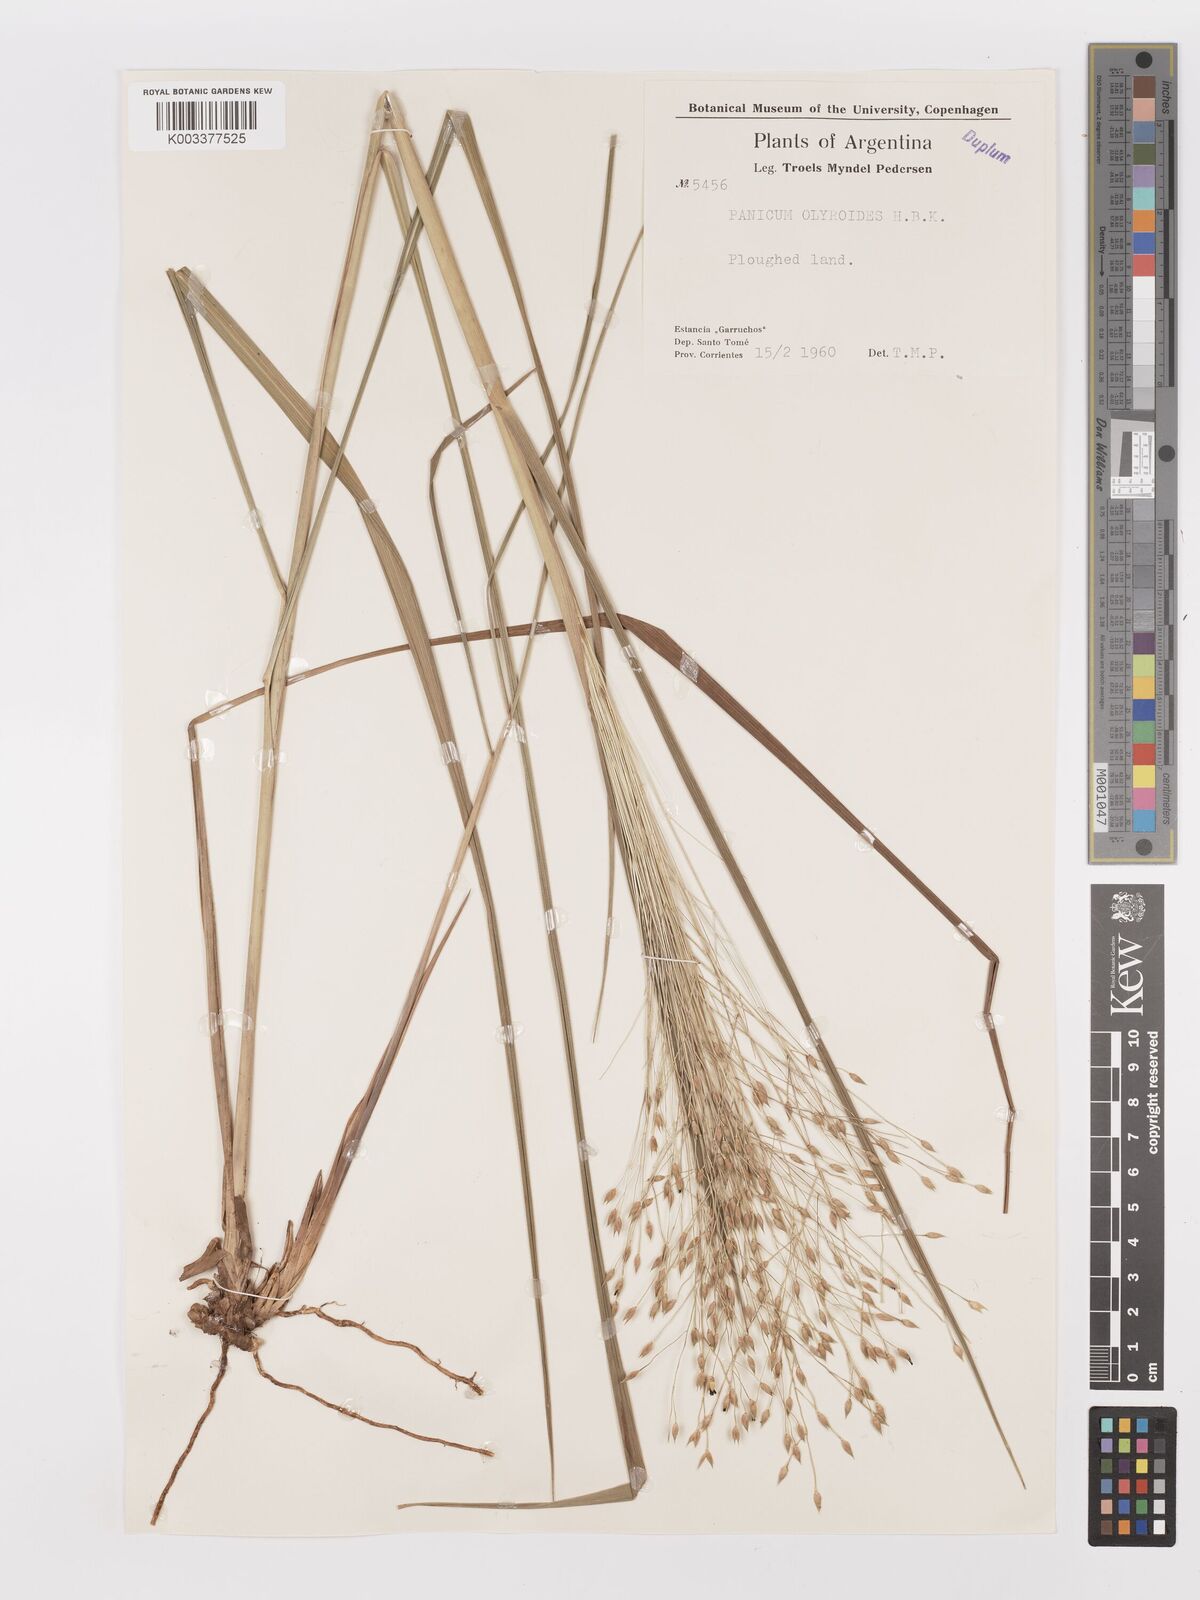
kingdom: Plantae
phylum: Tracheophyta
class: Liliopsida
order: Poales
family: Poaceae
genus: Panicum
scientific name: Panicum olyroides
